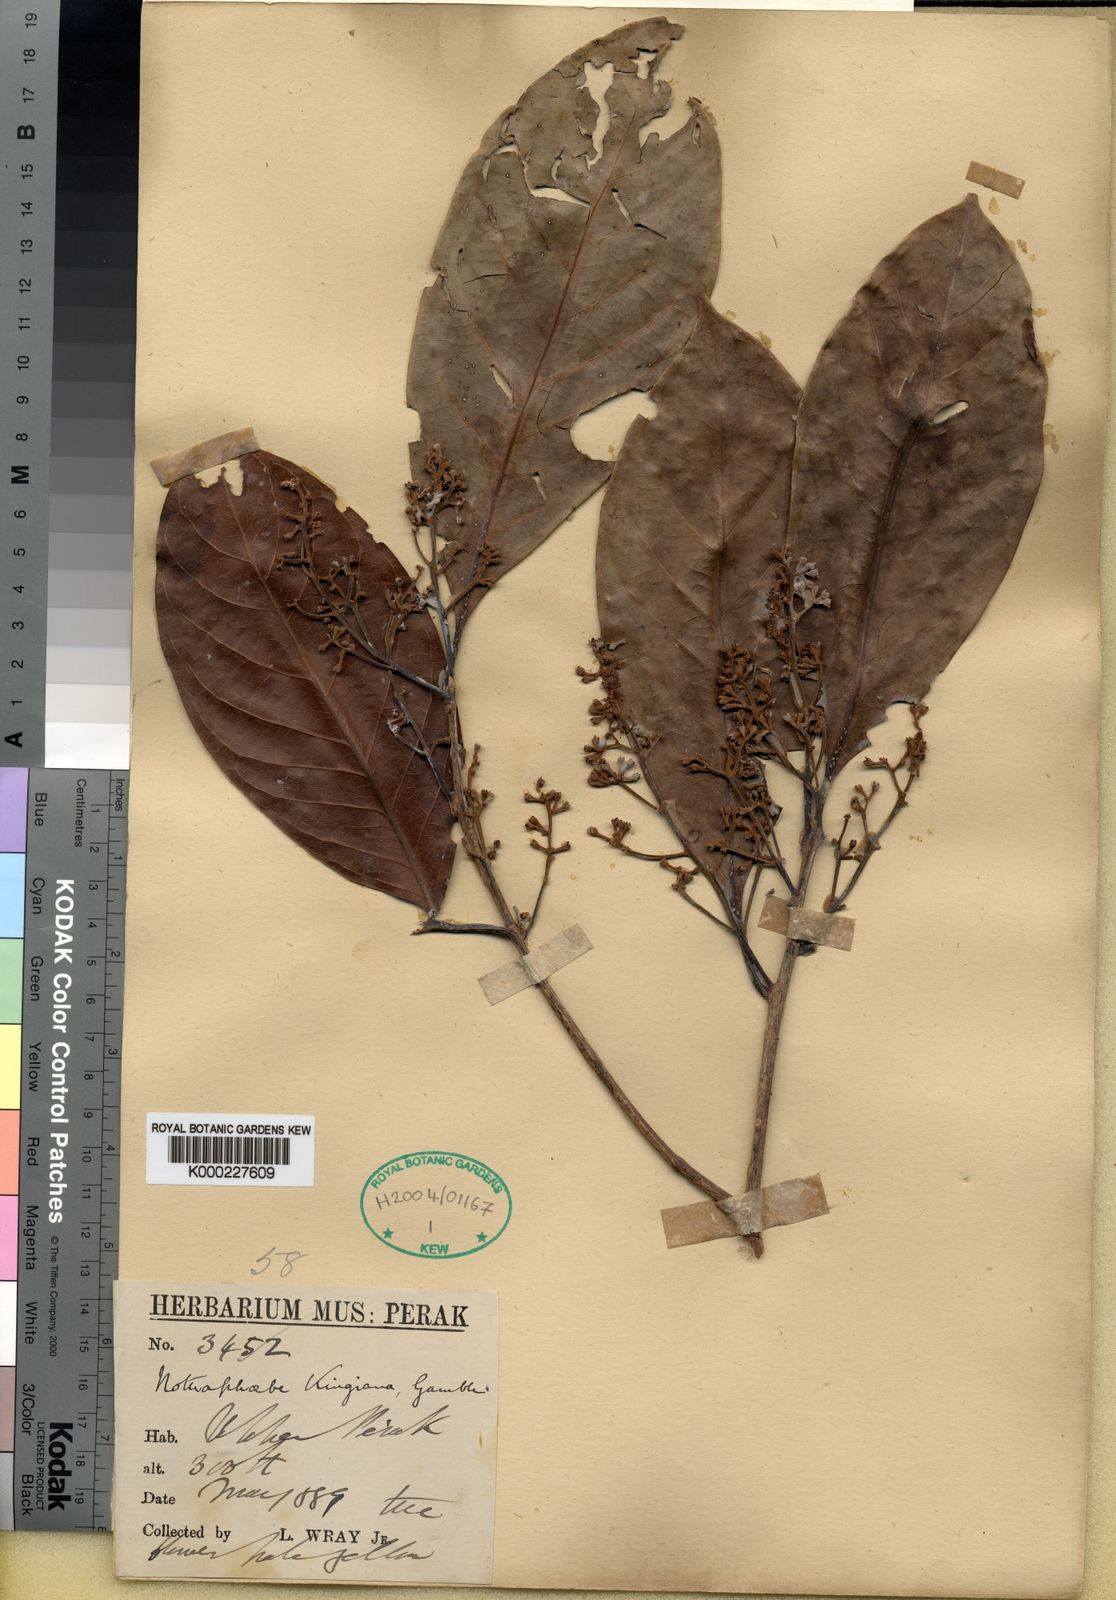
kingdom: Plantae
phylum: Tracheophyta
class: Magnoliopsida
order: Laurales
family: Lauraceae
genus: Nothaphoebe
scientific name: Nothaphoebe
